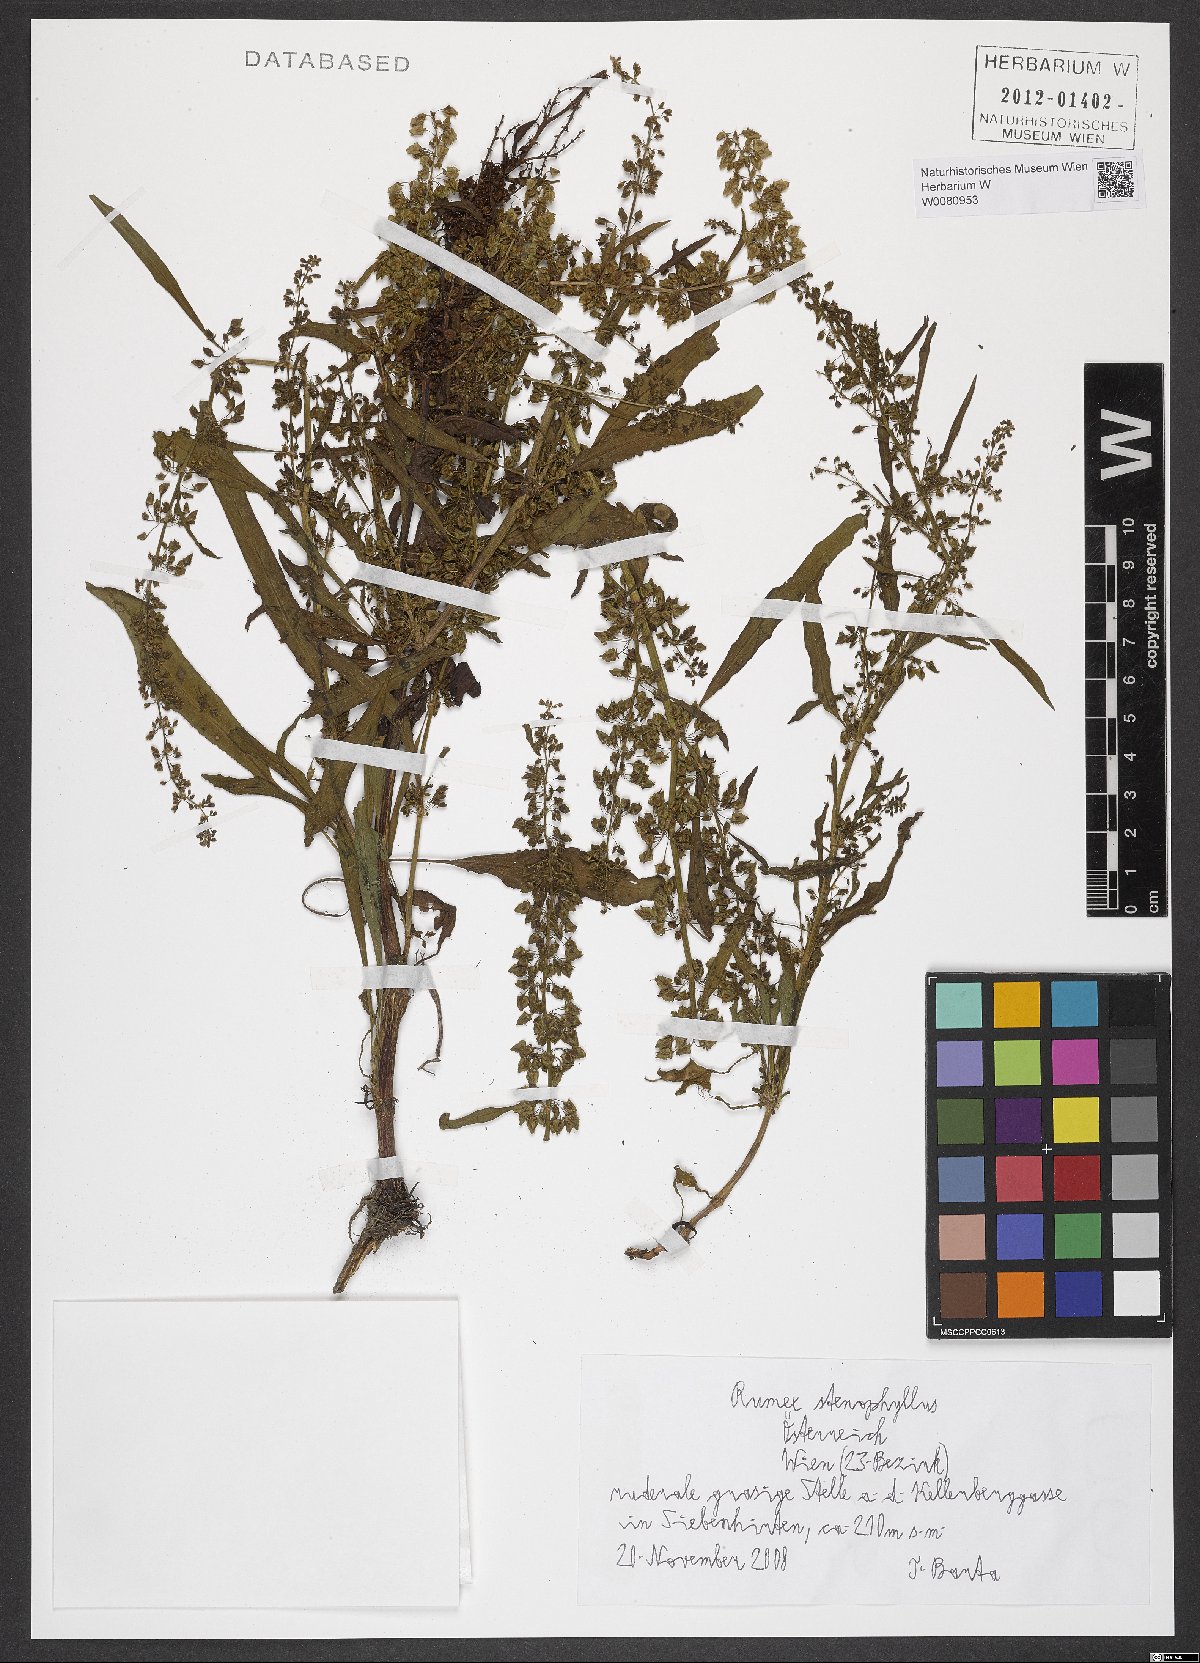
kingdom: Plantae
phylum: Tracheophyta
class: Magnoliopsida
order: Caryophyllales
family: Polygonaceae
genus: Rumex
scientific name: Rumex stenophyllus
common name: Narrowleaf dock
